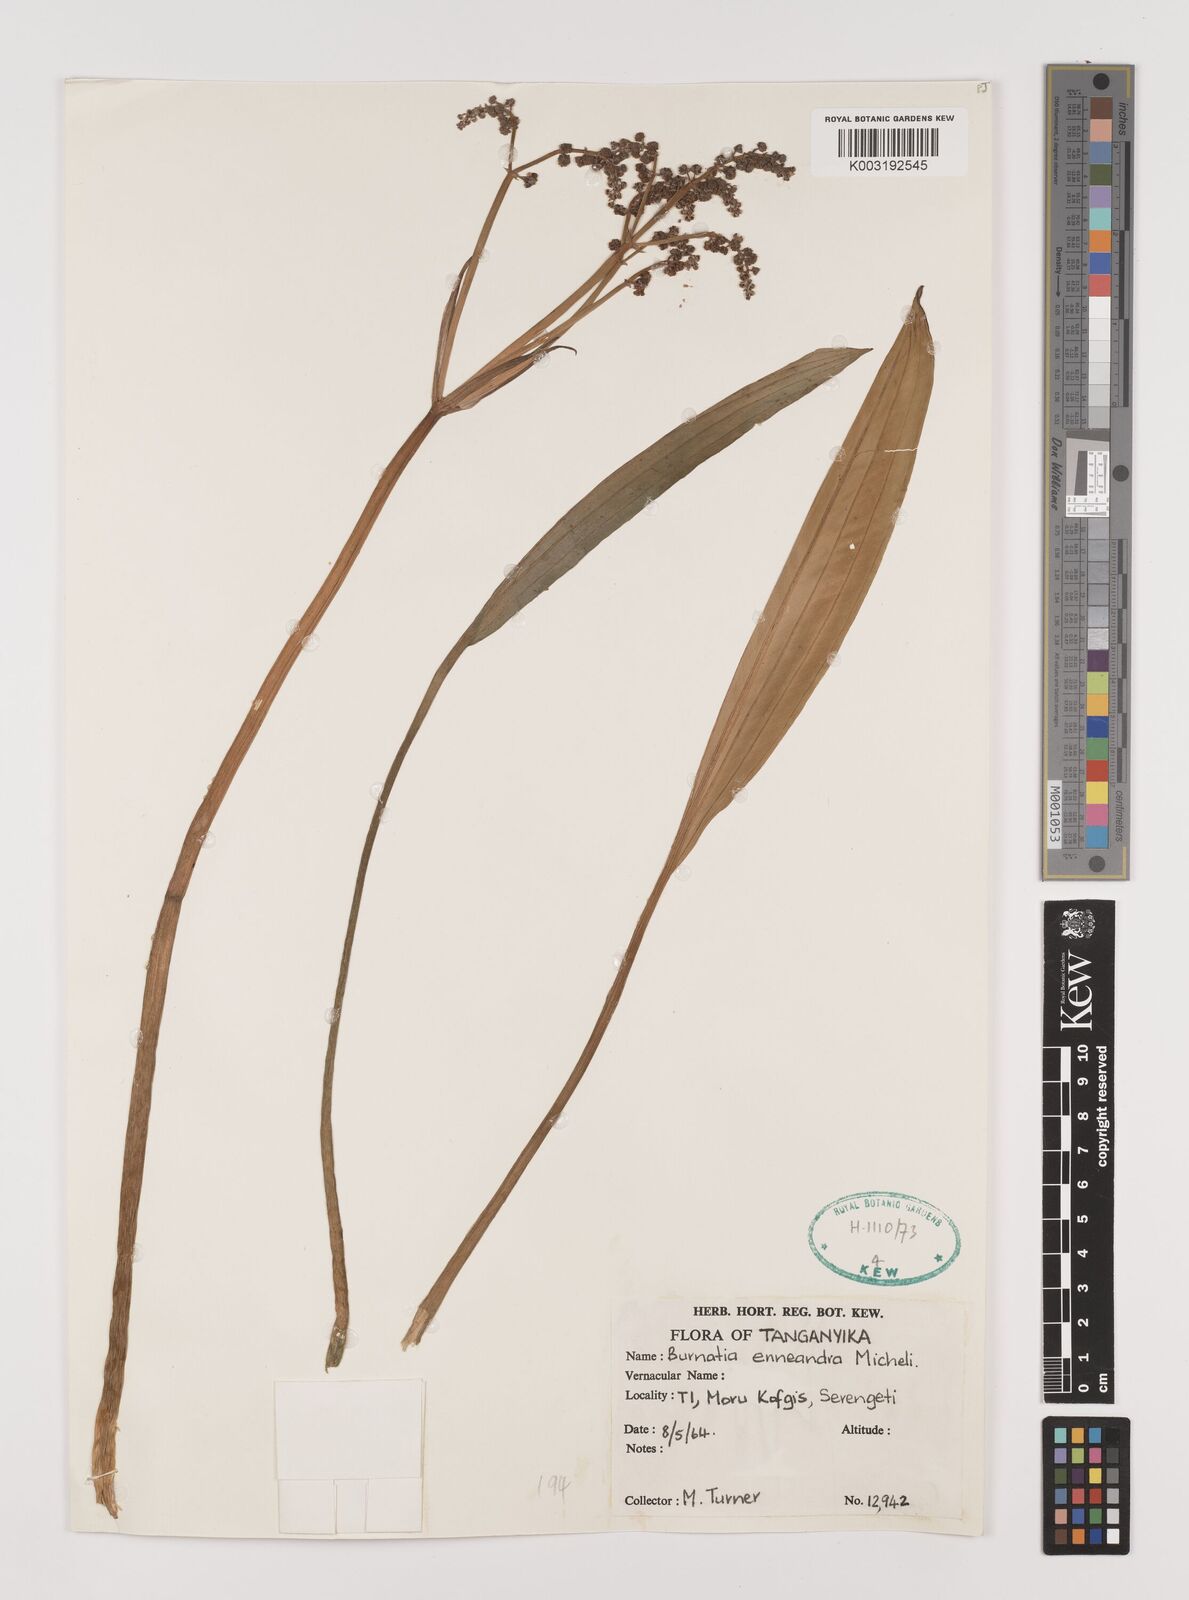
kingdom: Plantae
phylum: Tracheophyta
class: Liliopsida
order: Alismatales
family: Alismataceae
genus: Burnatia
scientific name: Burnatia enneandra
